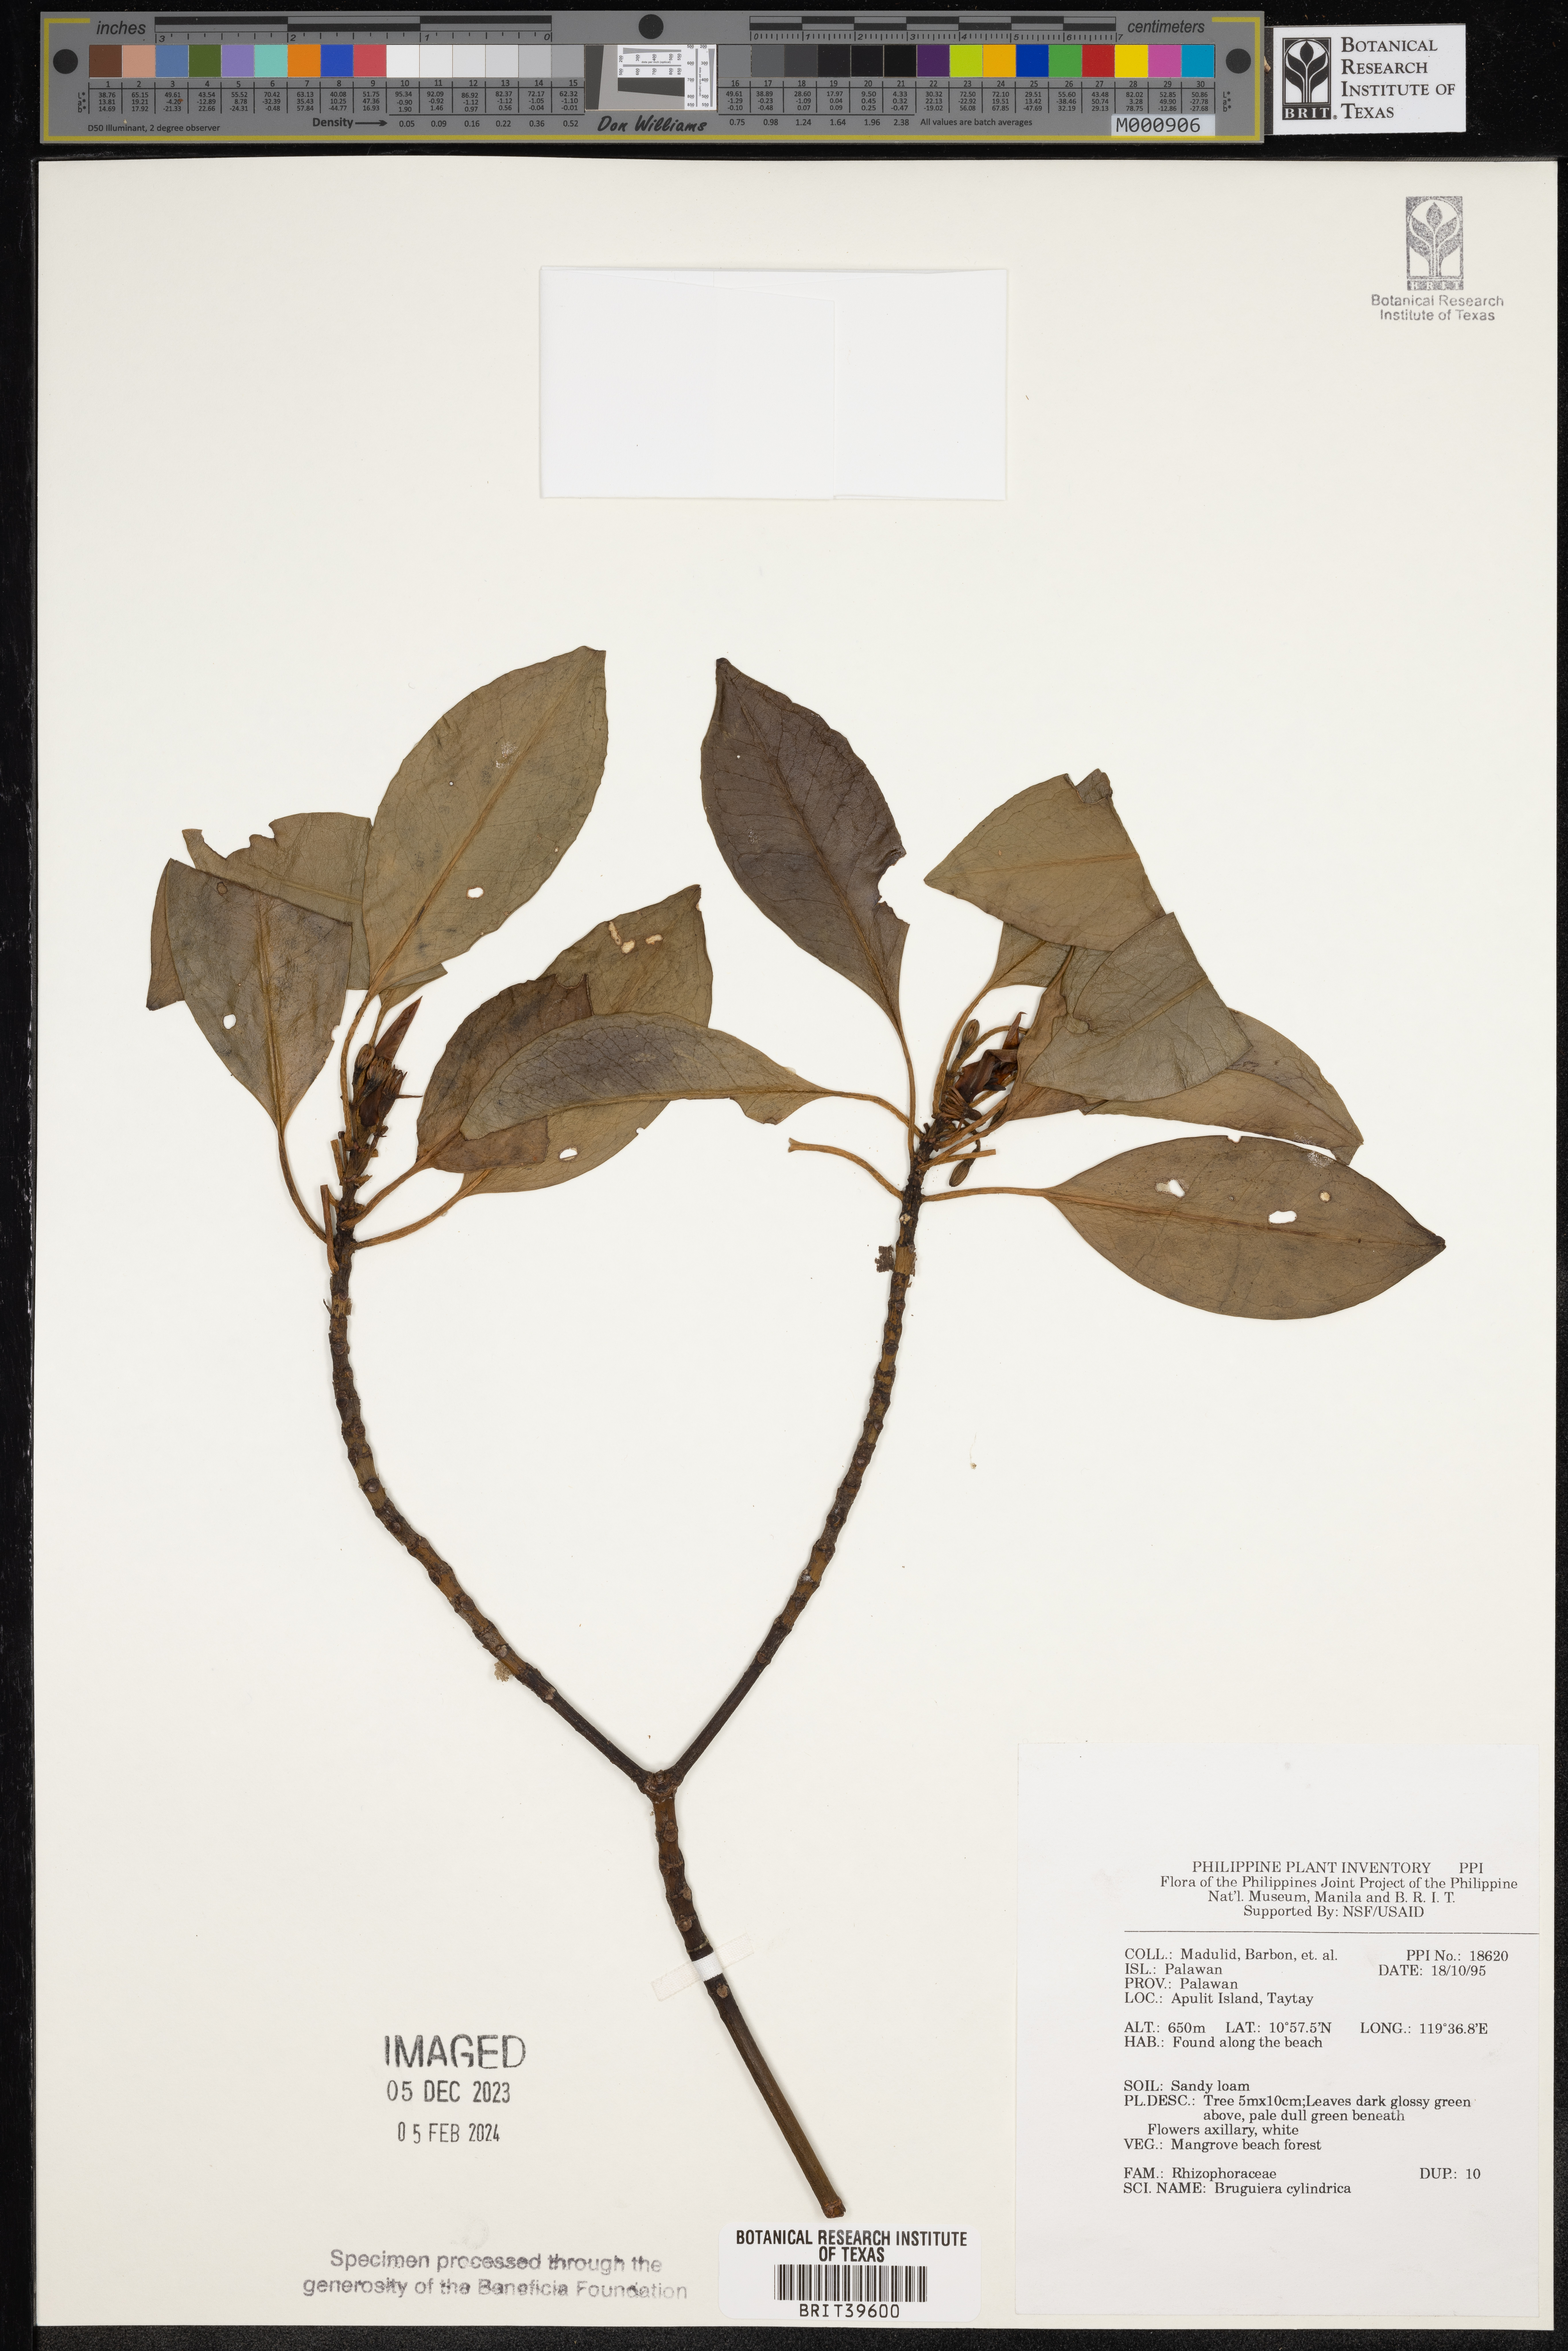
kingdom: Plantae
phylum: Tracheophyta
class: Magnoliopsida
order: Malpighiales
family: Rhizophoraceae
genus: Bruguiera
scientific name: Bruguiera cylindrica
